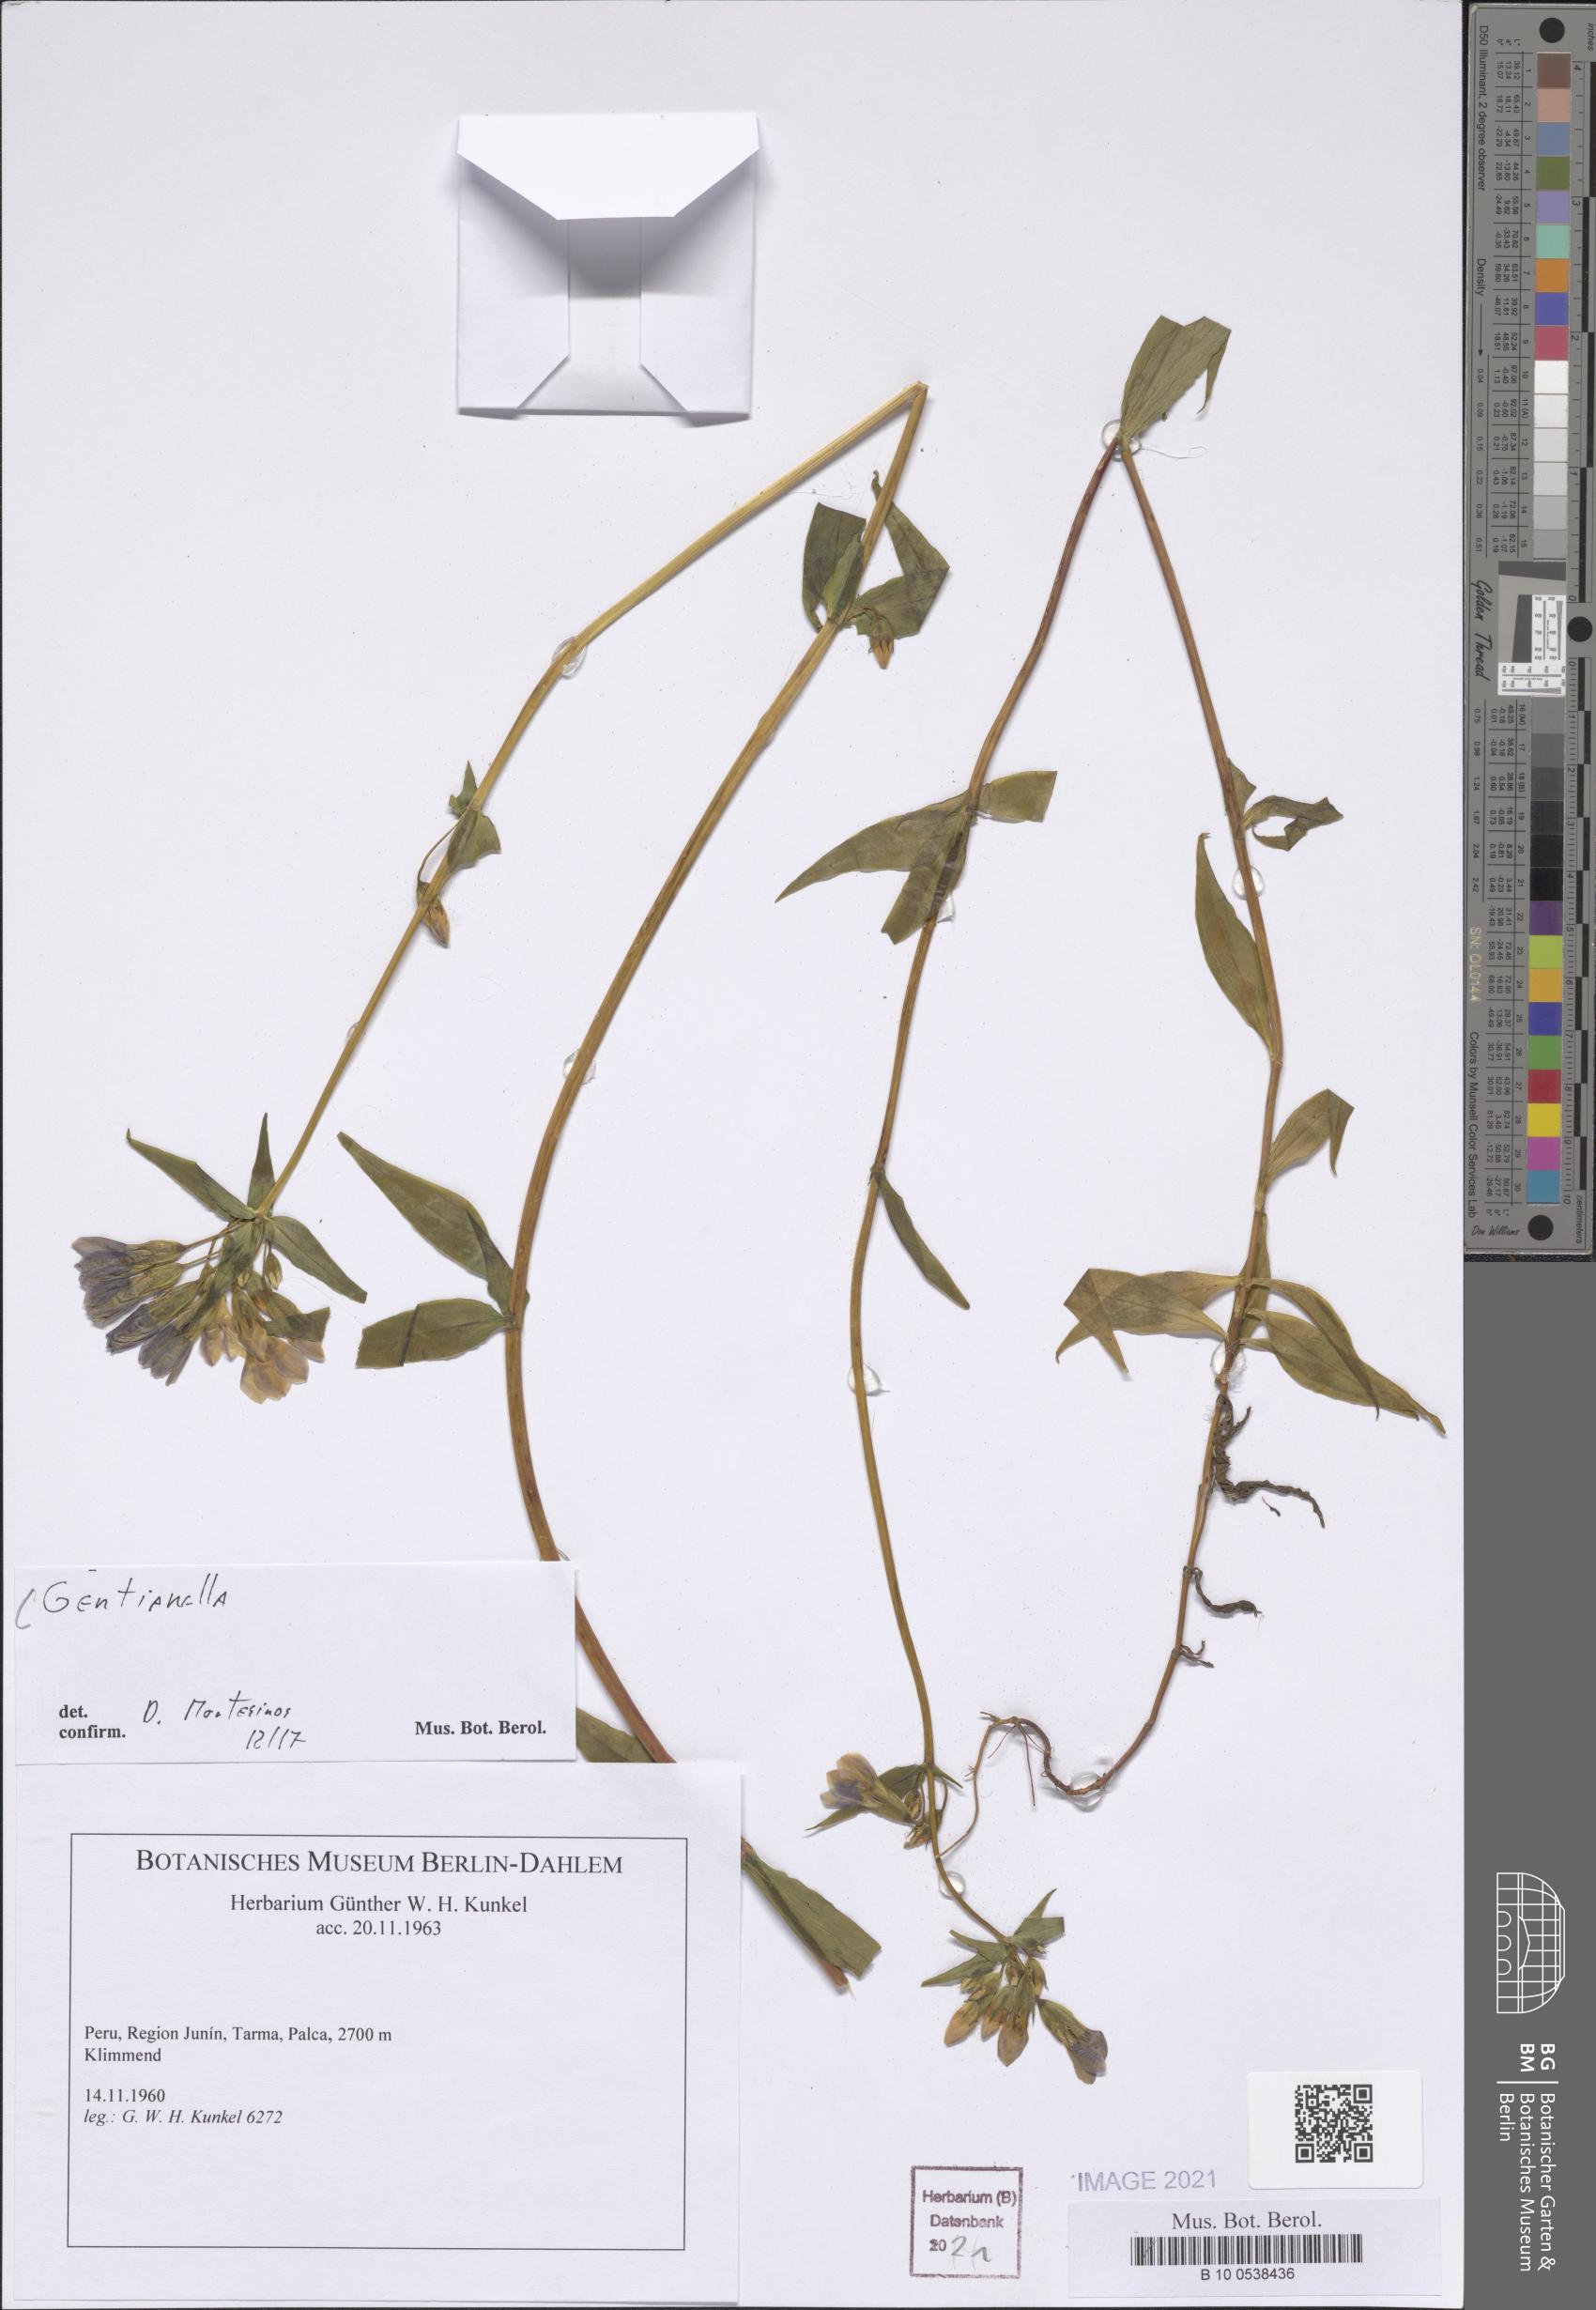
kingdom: Plantae
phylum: Tracheophyta
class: Magnoliopsida
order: Gentianales
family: Gentianaceae
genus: Gentianella
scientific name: Gentianella
